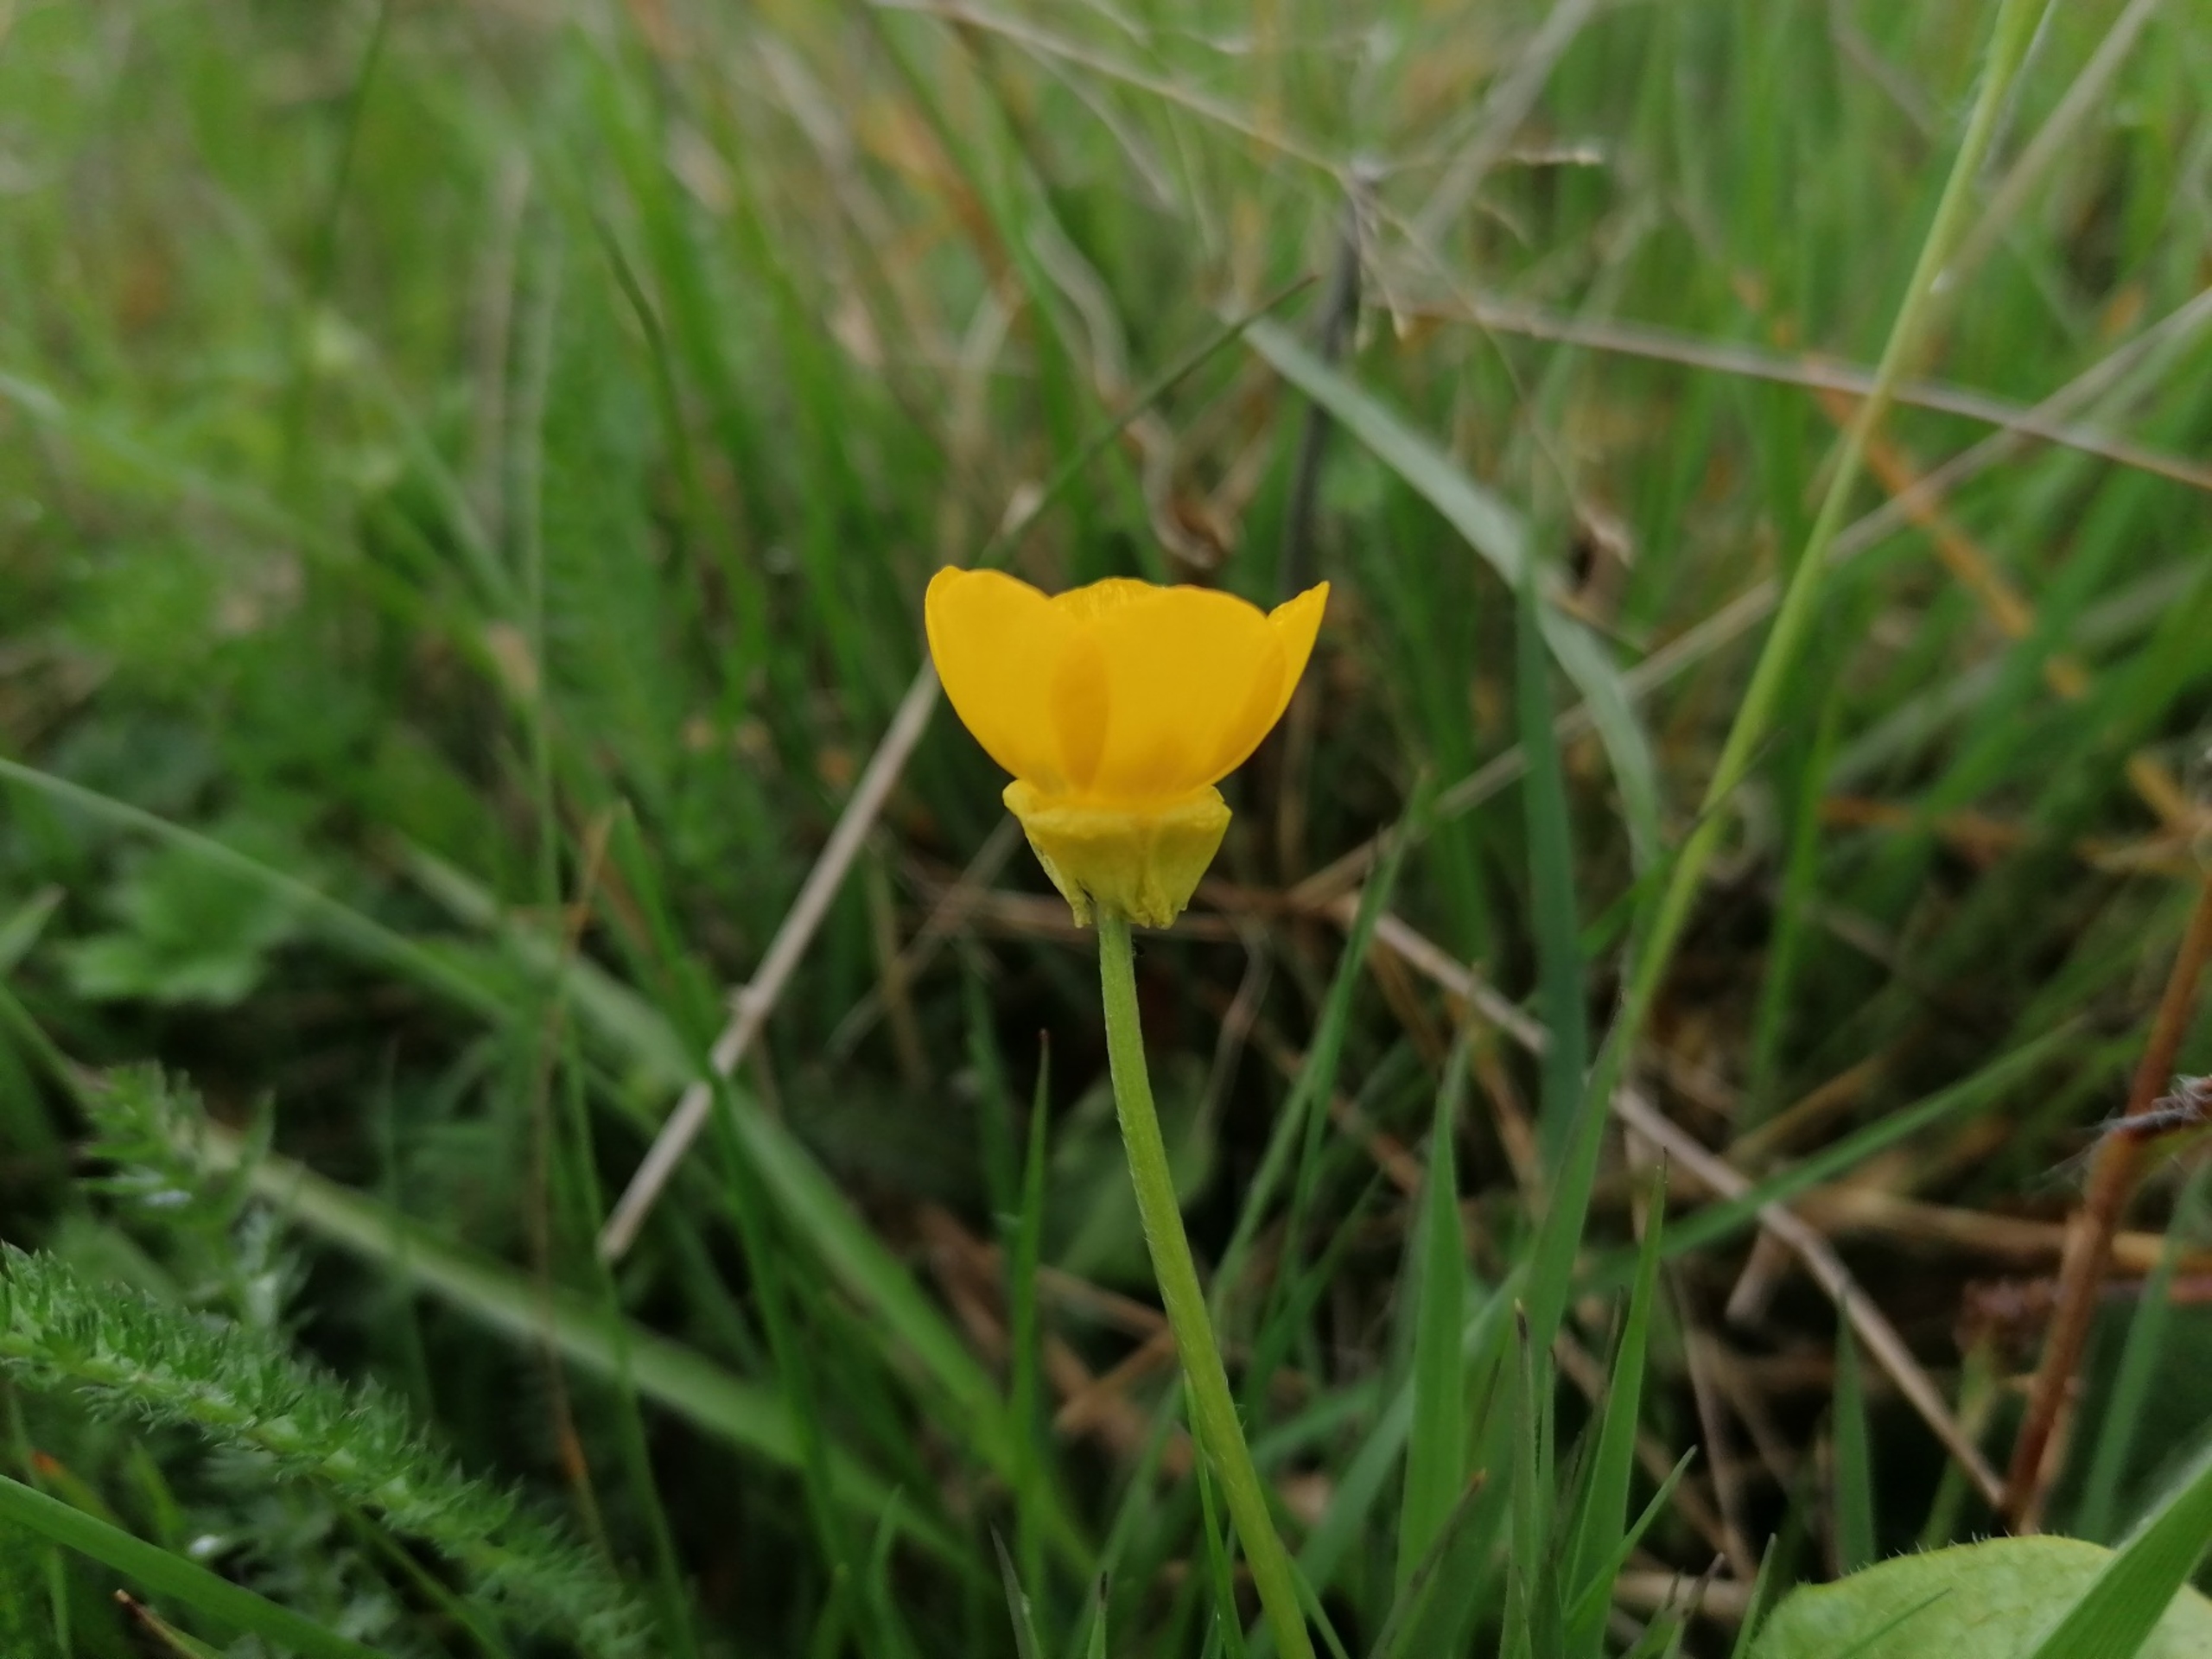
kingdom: Plantae
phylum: Tracheophyta
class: Magnoliopsida
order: Ranunculales
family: Ranunculaceae
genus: Ranunculus
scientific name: Ranunculus bulbosus
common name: Knold-ranunkel
